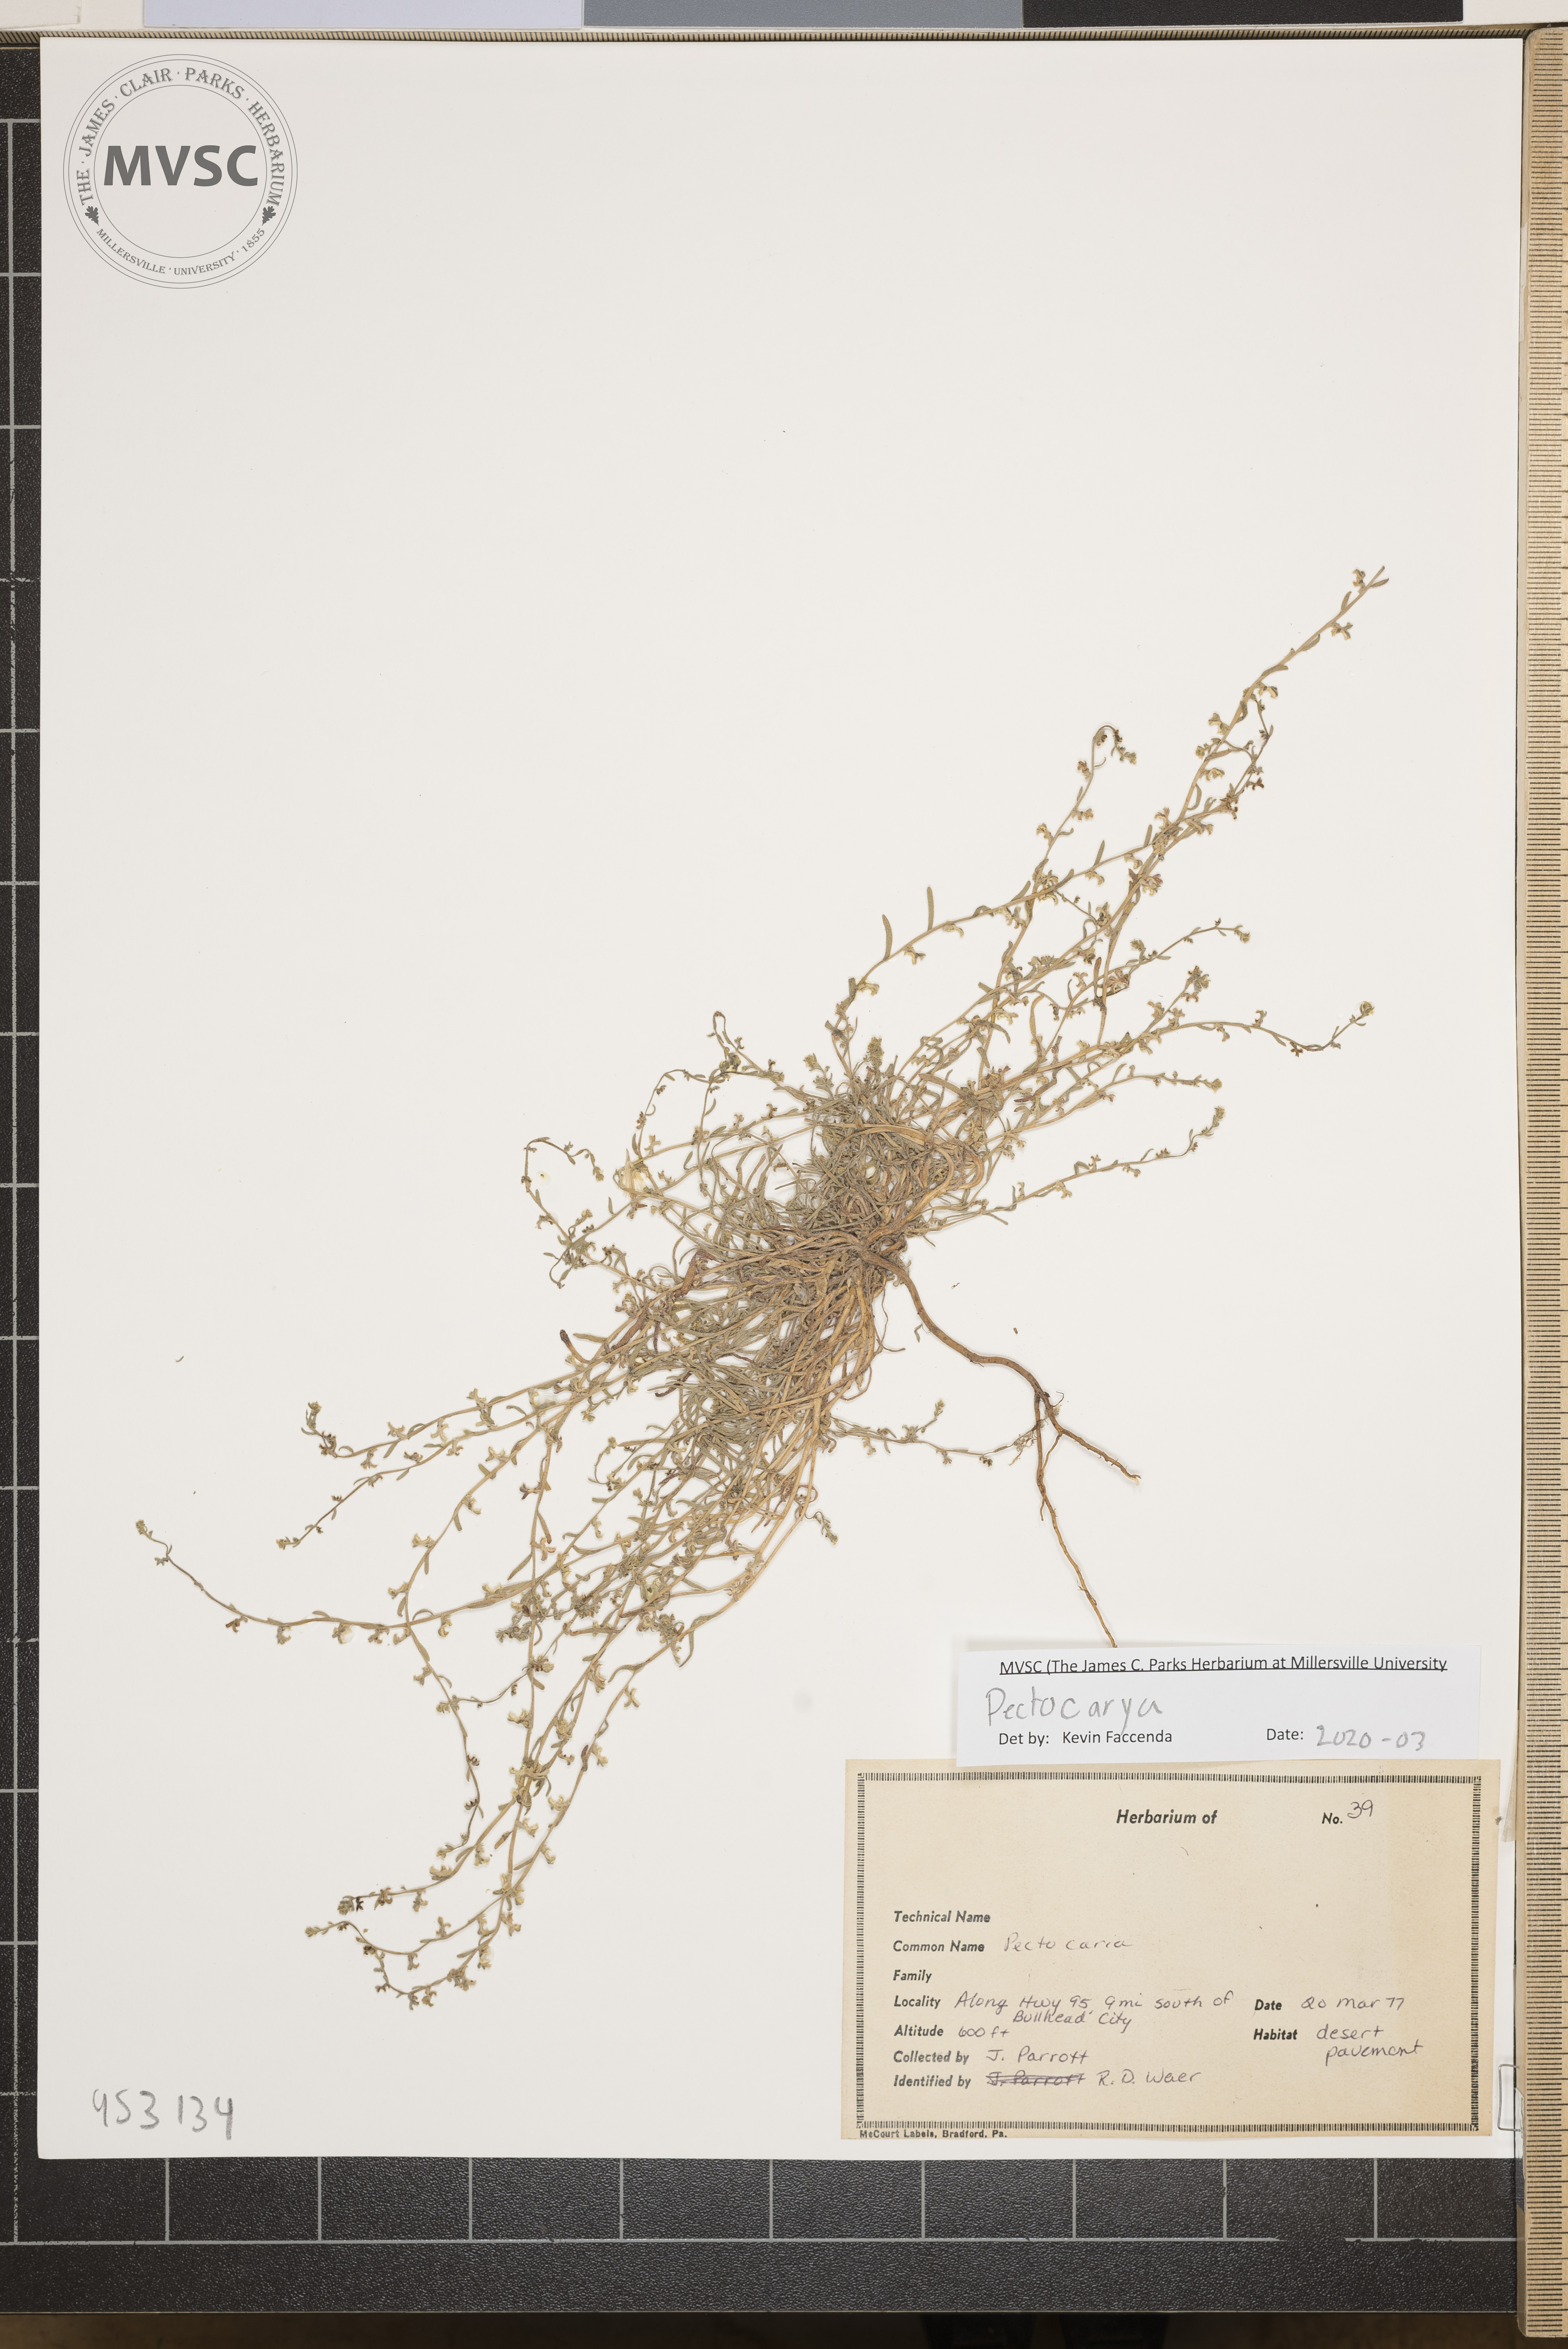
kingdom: Plantae
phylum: Tracheophyta
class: Magnoliopsida
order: Boraginales
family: Boraginaceae
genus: Pectocarya
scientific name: Pectocarya
